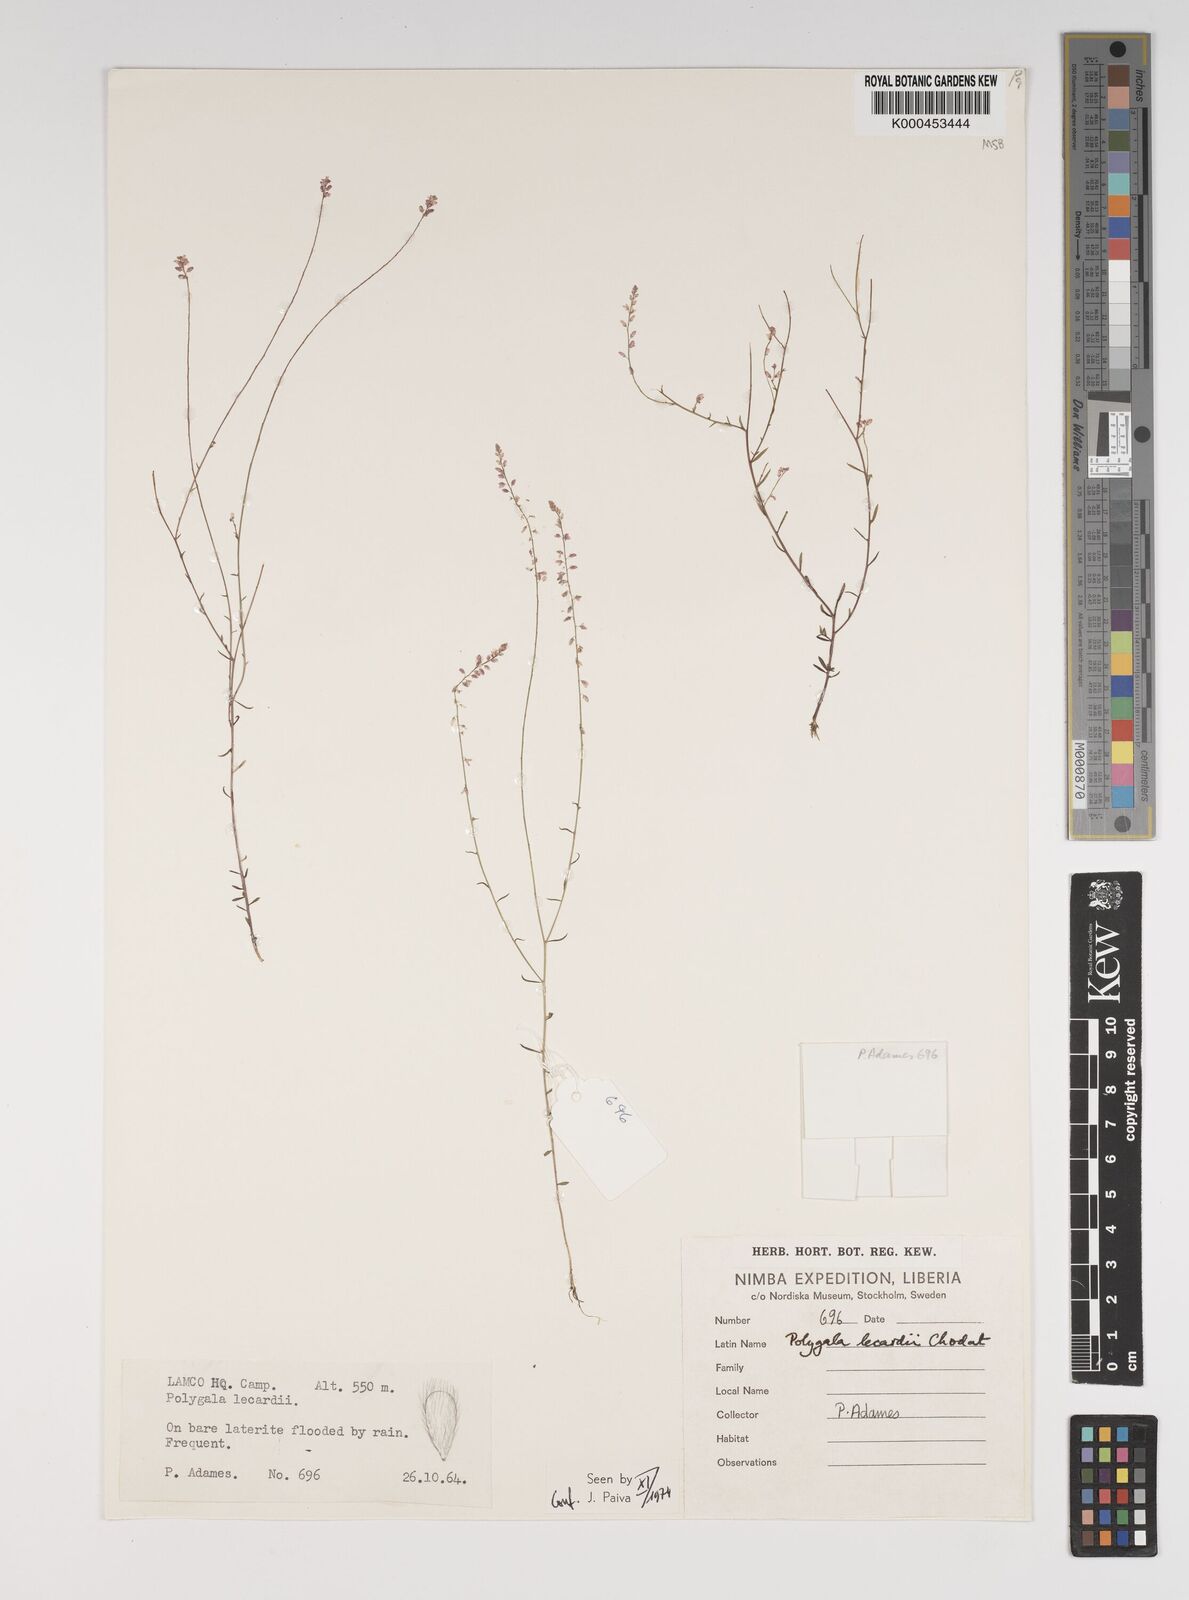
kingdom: Plantae
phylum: Tracheophyta
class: Magnoliopsida
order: Fabales
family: Polygalaceae
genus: Polygala
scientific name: Polygala lecardii
